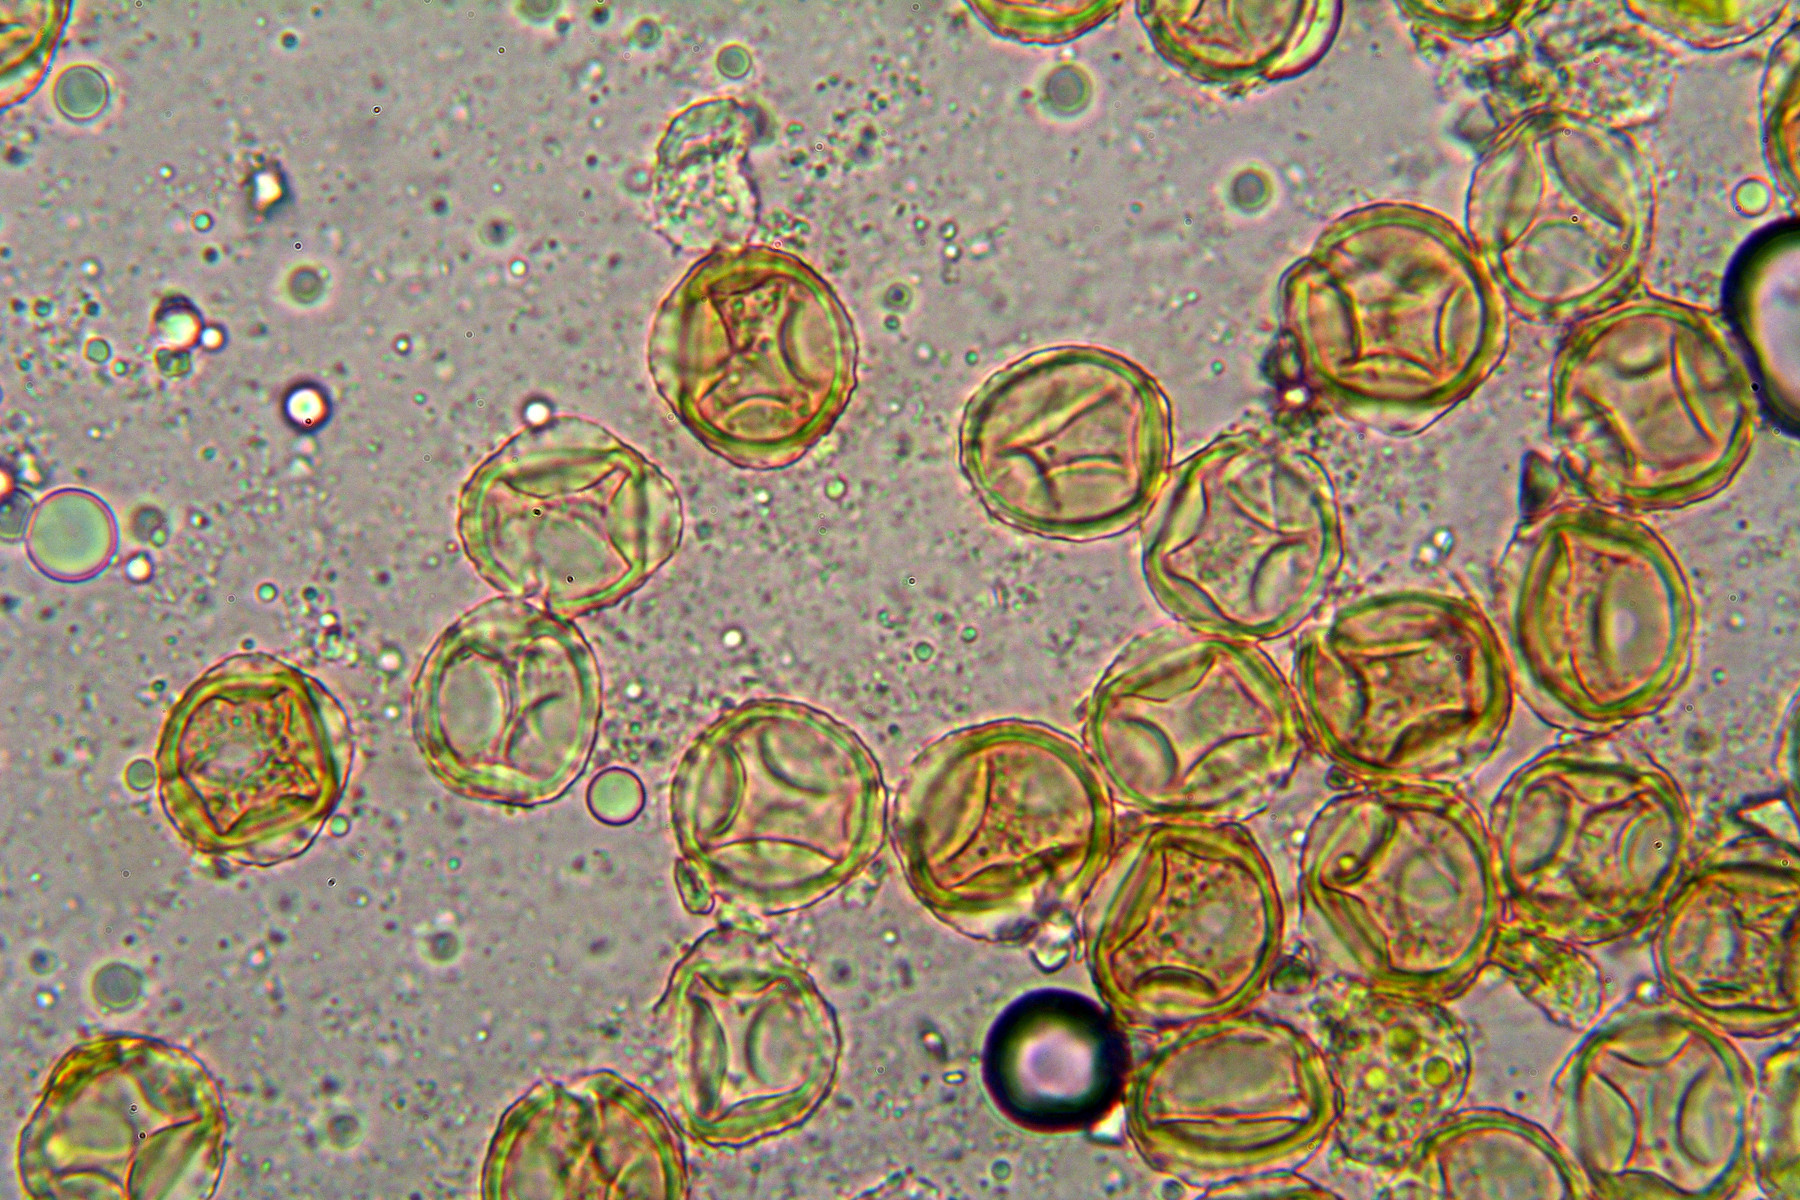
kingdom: Fungi
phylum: Basidiomycota
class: Pucciniomycetes
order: Pucciniales
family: Pucciniaceae
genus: Puccinia
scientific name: Puccinia maculosa
